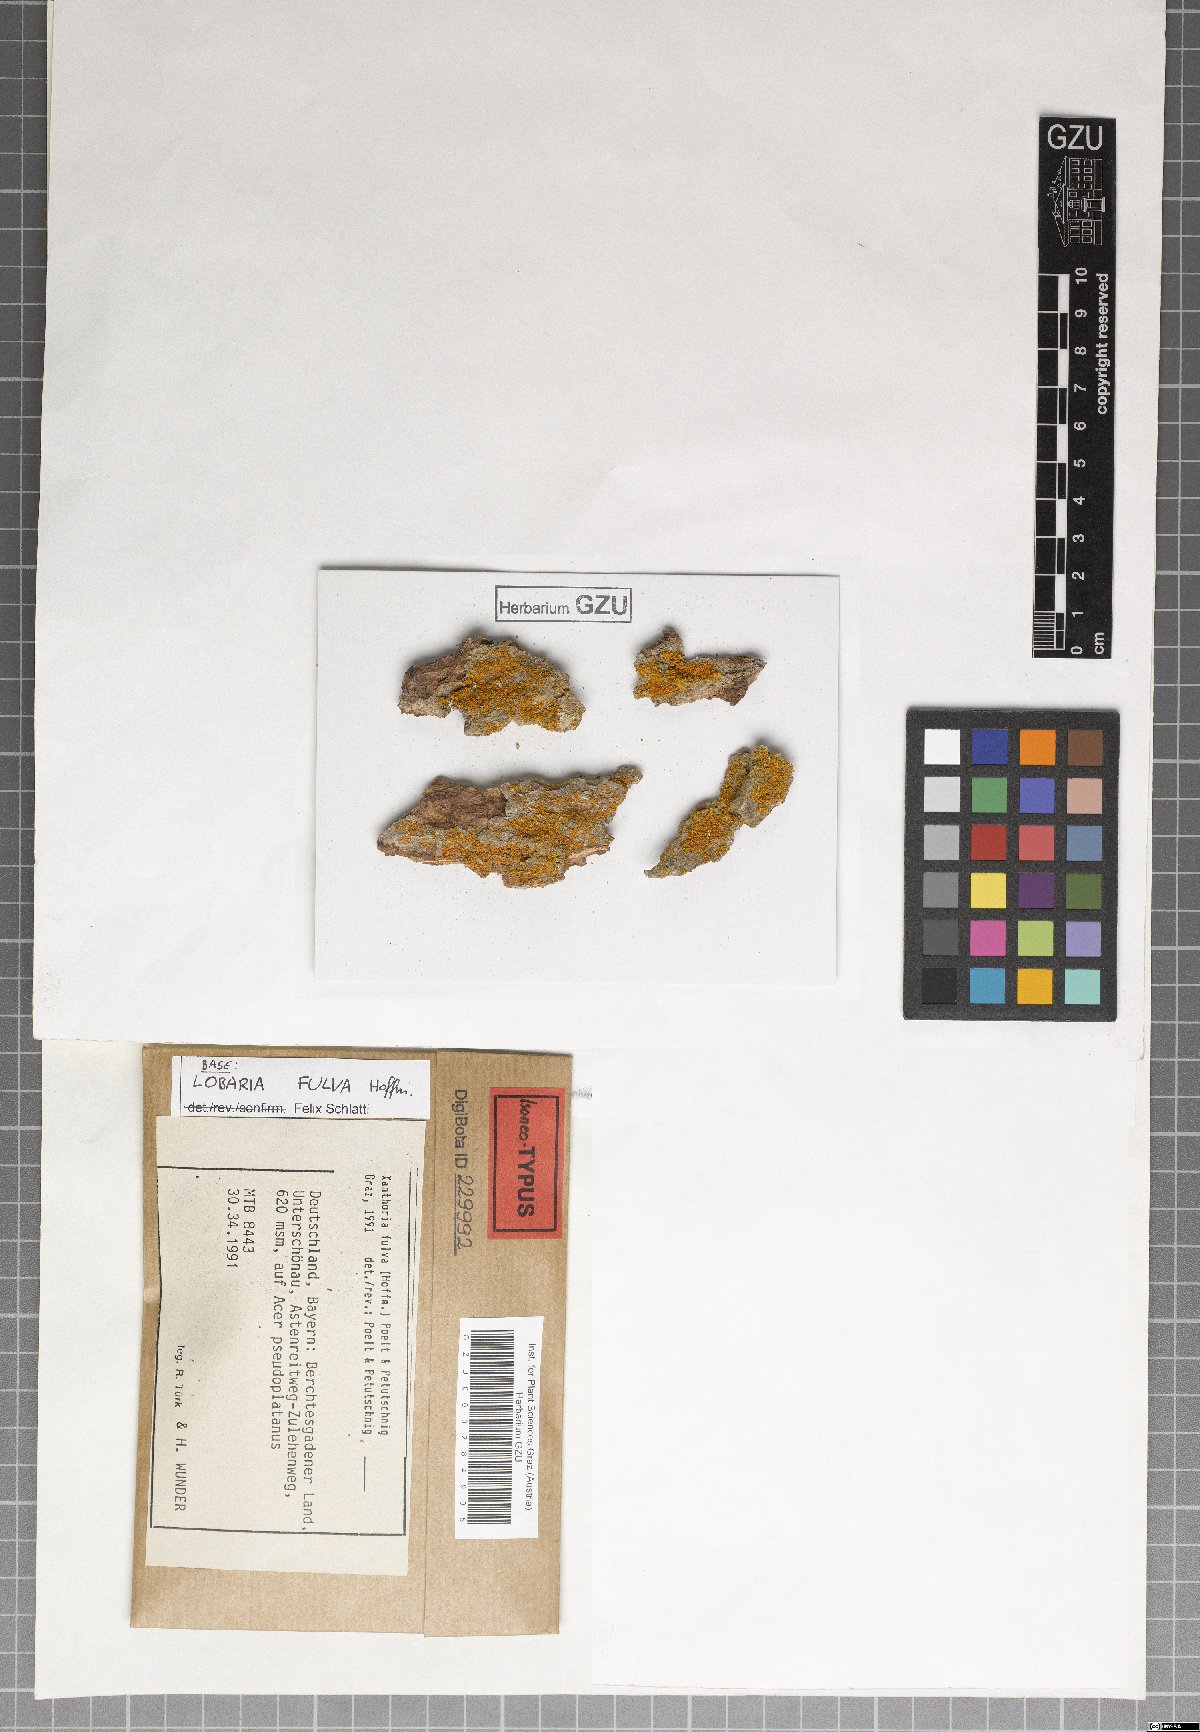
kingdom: Fungi
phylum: Ascomycota
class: Lecanoromycetes
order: Teloschistales
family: Teloschistaceae
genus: Gallowayella
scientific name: Gallowayella fulva
